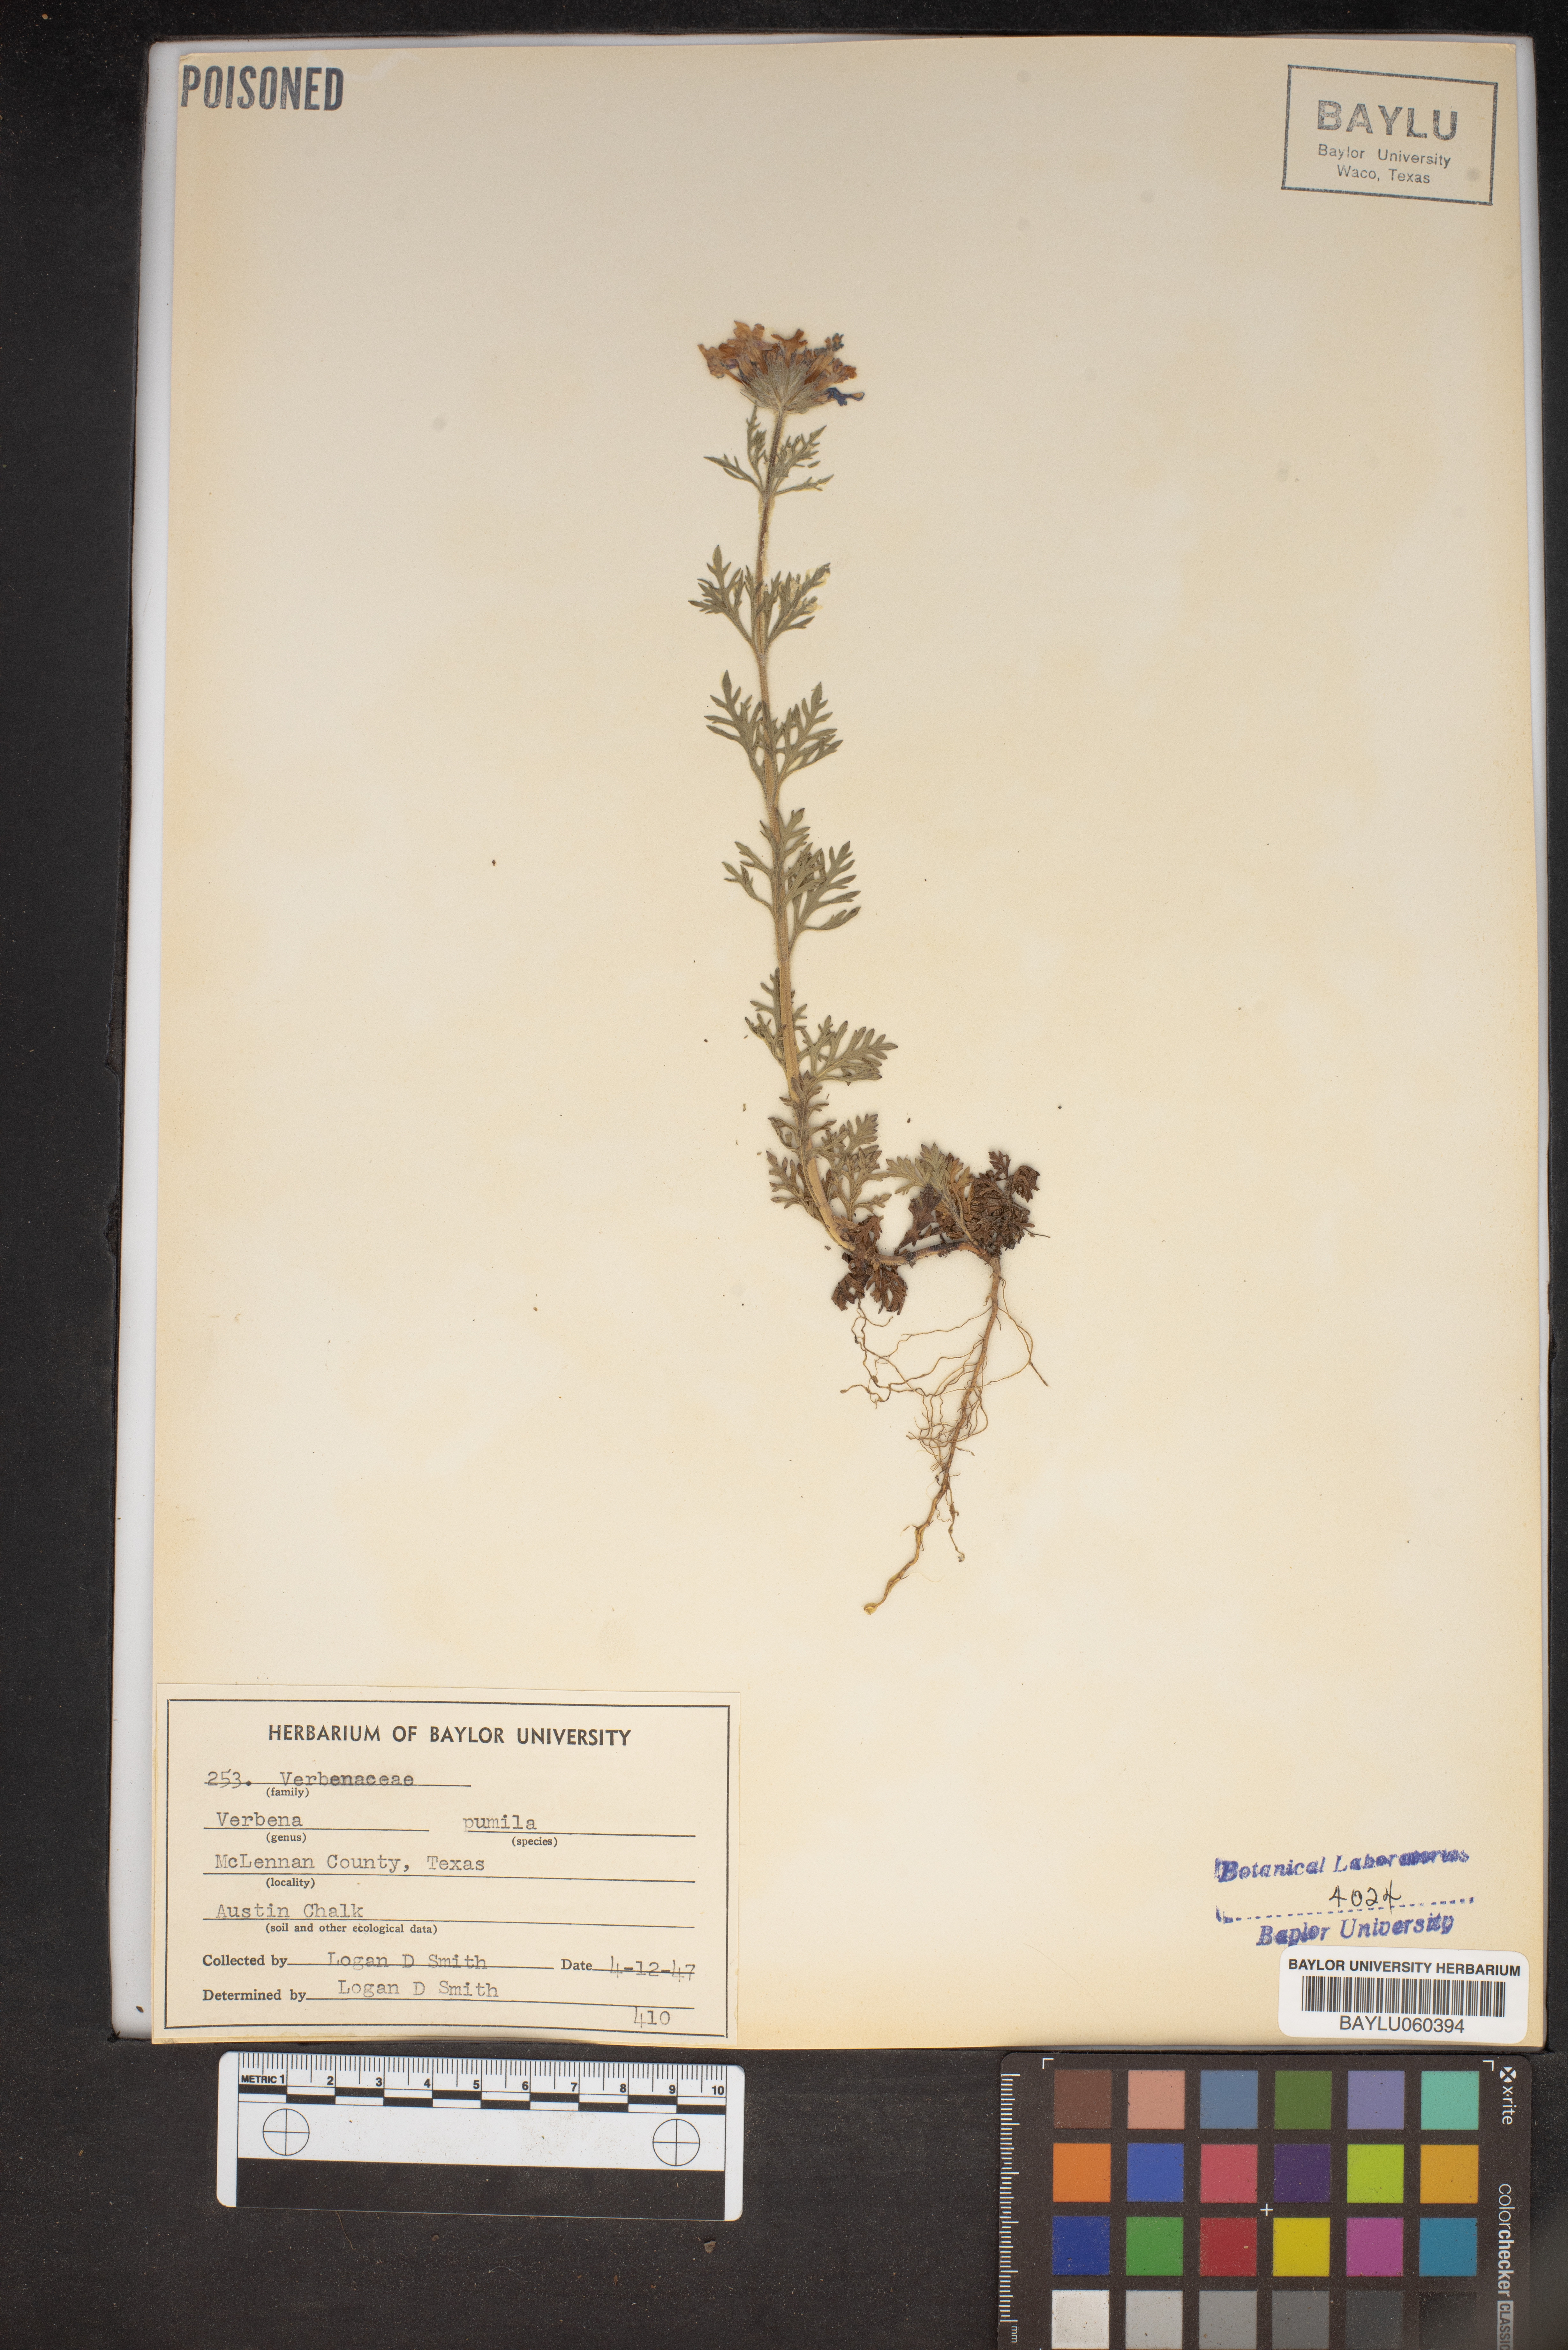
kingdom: Plantae
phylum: Tracheophyta
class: Magnoliopsida
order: Lamiales
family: Verbenaceae
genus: Verbena
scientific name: Verbena pumila
